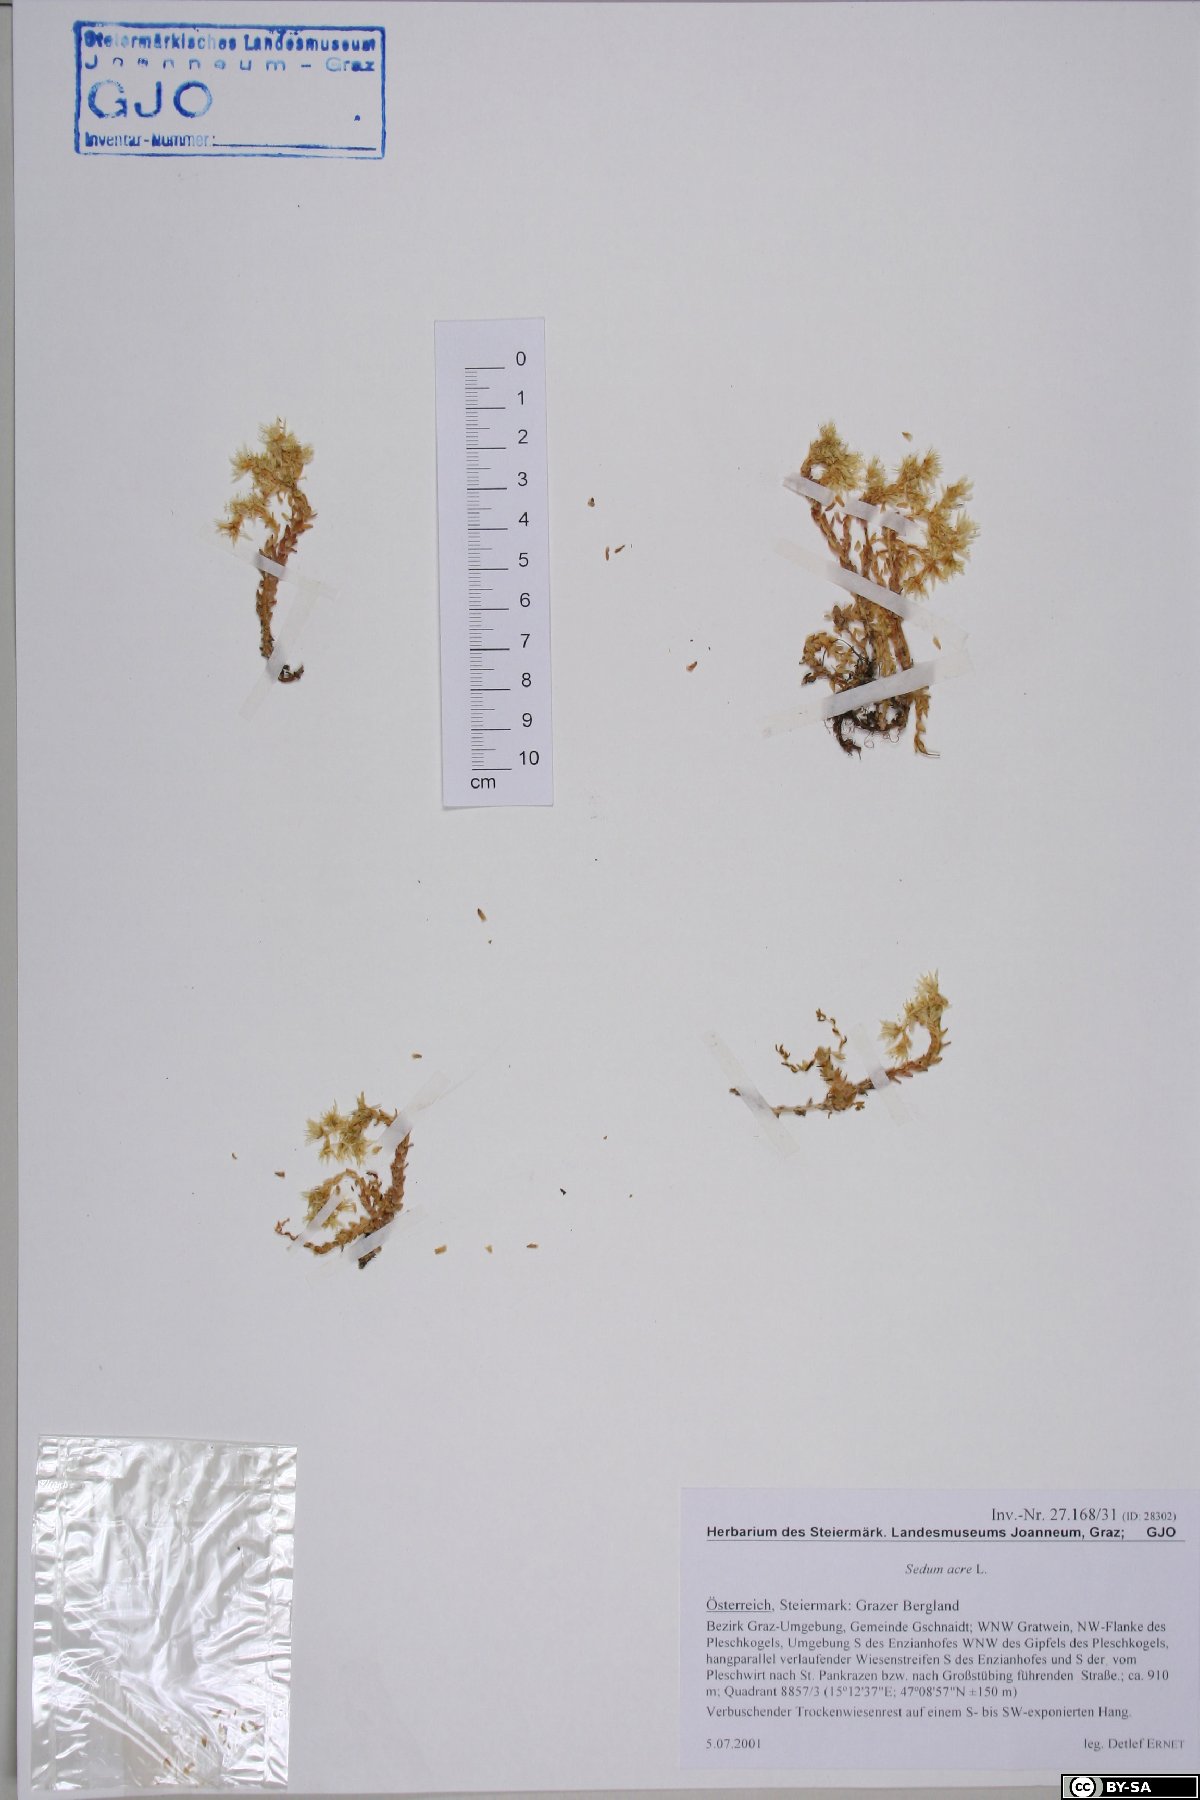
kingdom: Plantae
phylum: Tracheophyta
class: Magnoliopsida
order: Saxifragales
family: Crassulaceae
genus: Sedum
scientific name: Sedum acre
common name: Biting stonecrop
